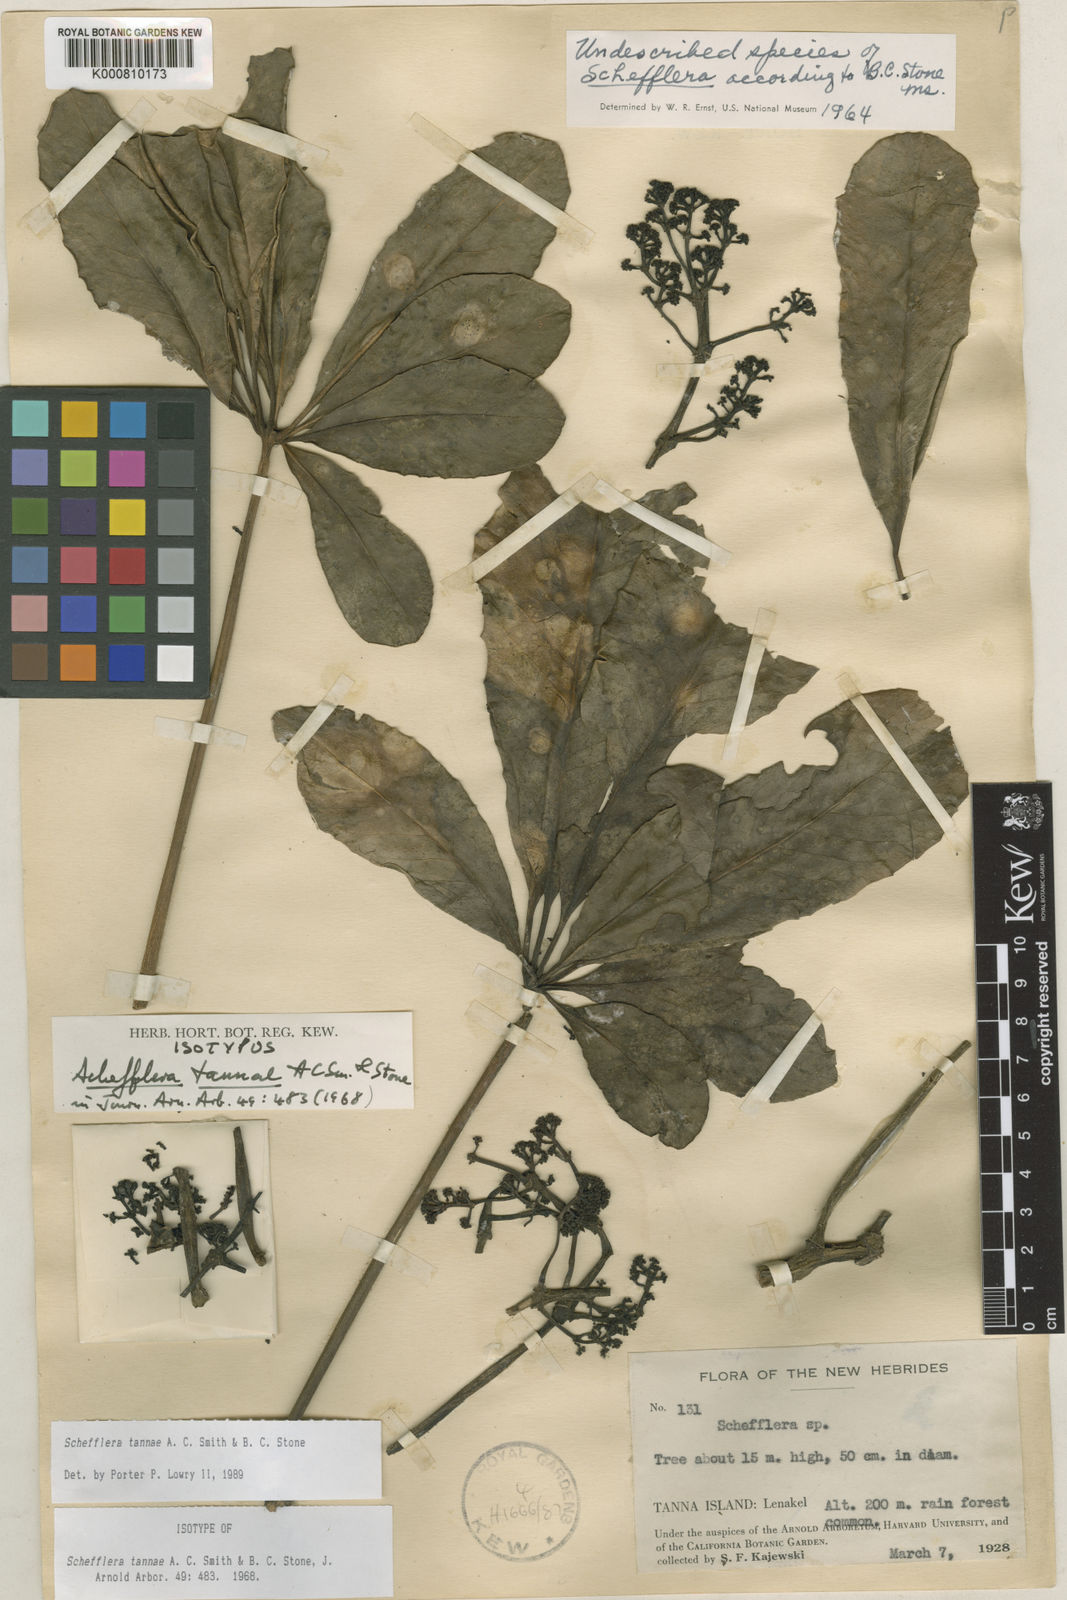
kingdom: Plantae
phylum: Tracheophyta
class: Magnoliopsida
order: Apiales
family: Araliaceae
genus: Plerandra
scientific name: Plerandra tannae
